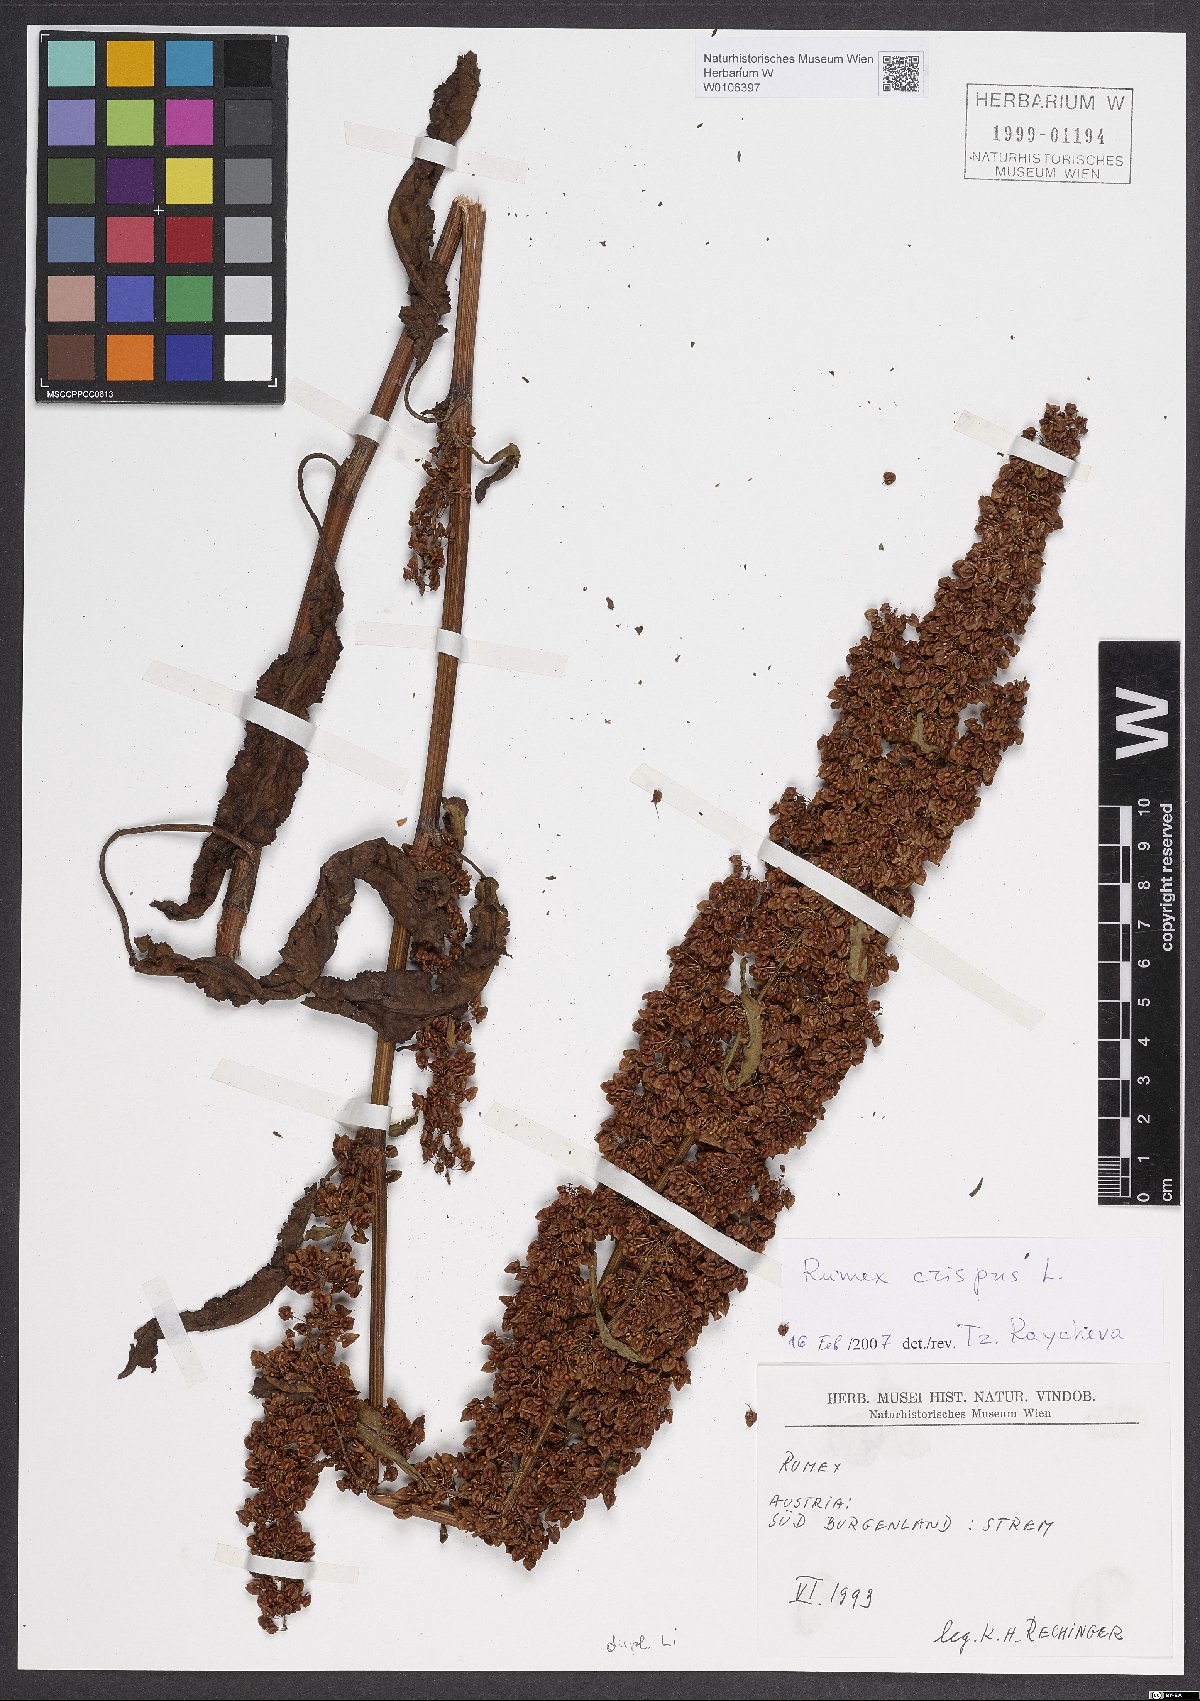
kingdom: Plantae
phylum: Tracheophyta
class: Magnoliopsida
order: Caryophyllales
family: Polygonaceae
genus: Rumex
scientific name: Rumex crispus
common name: Curled dock
